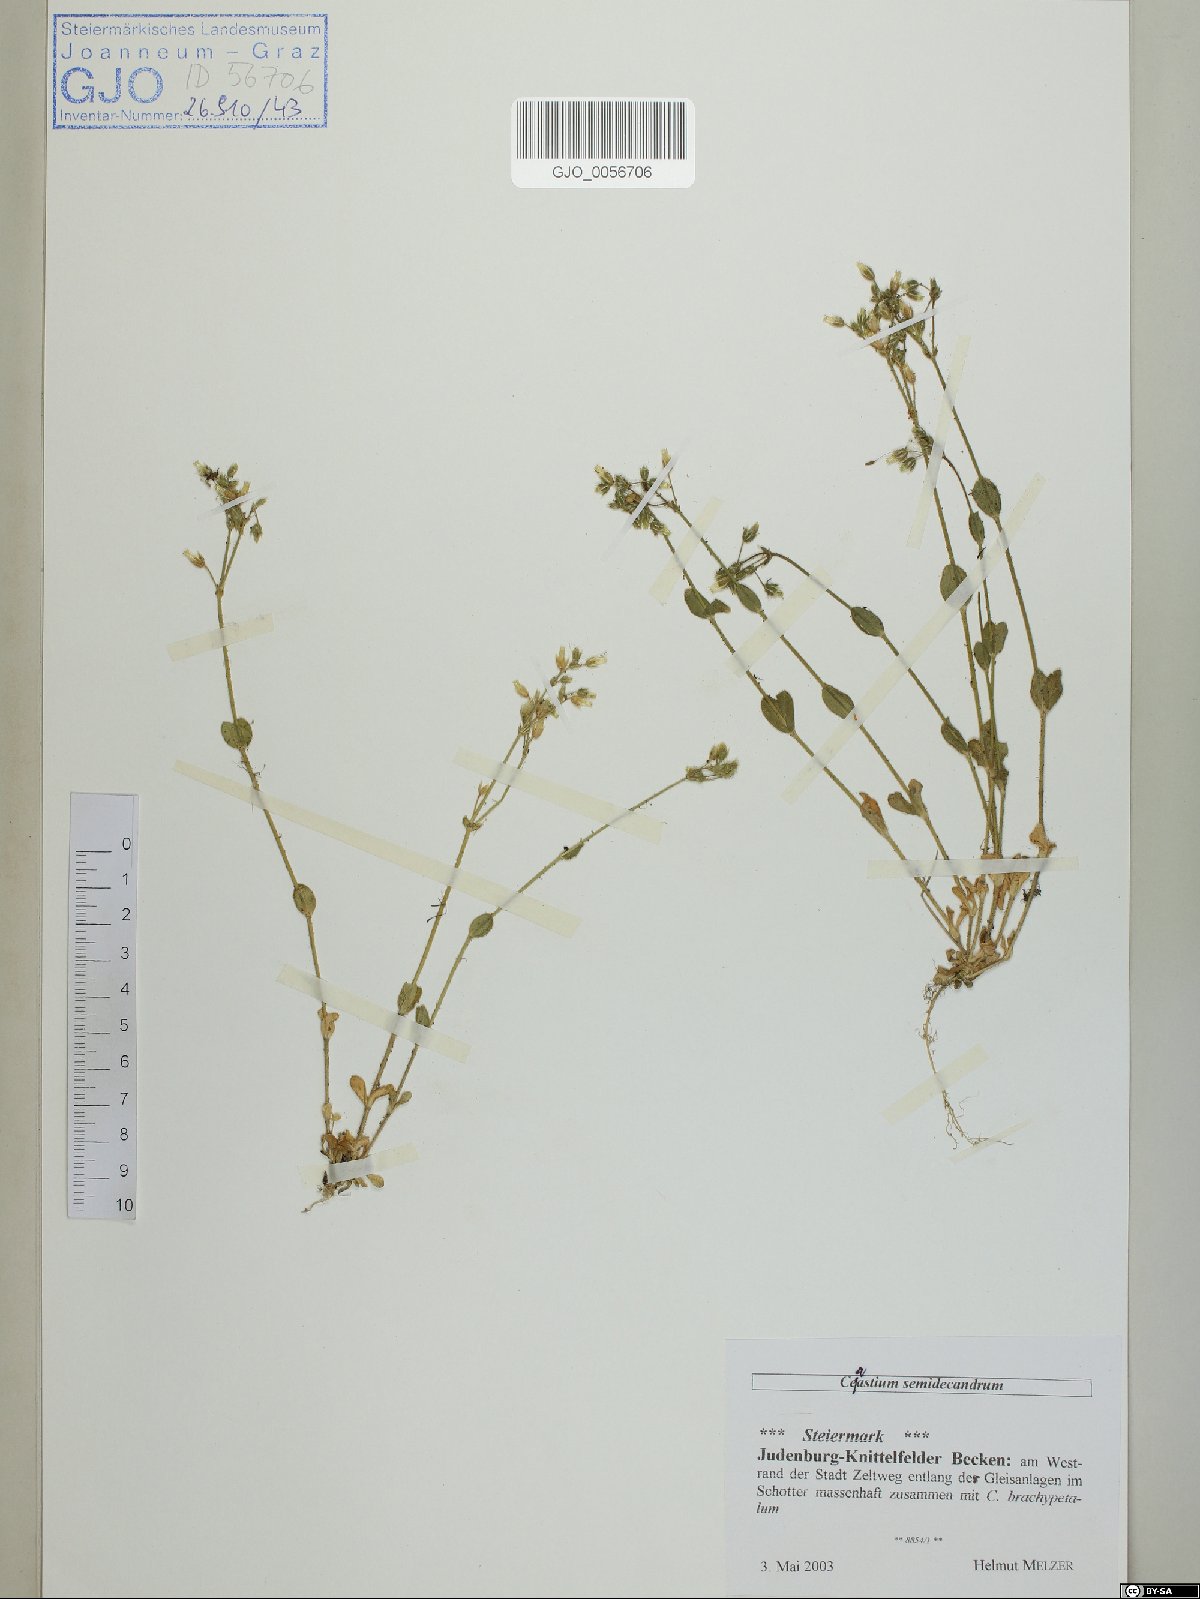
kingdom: Plantae
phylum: Tracheophyta
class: Magnoliopsida
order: Caryophyllales
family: Caryophyllaceae
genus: Cerastium
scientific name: Cerastium semidecandrum
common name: Little mouse-ear
